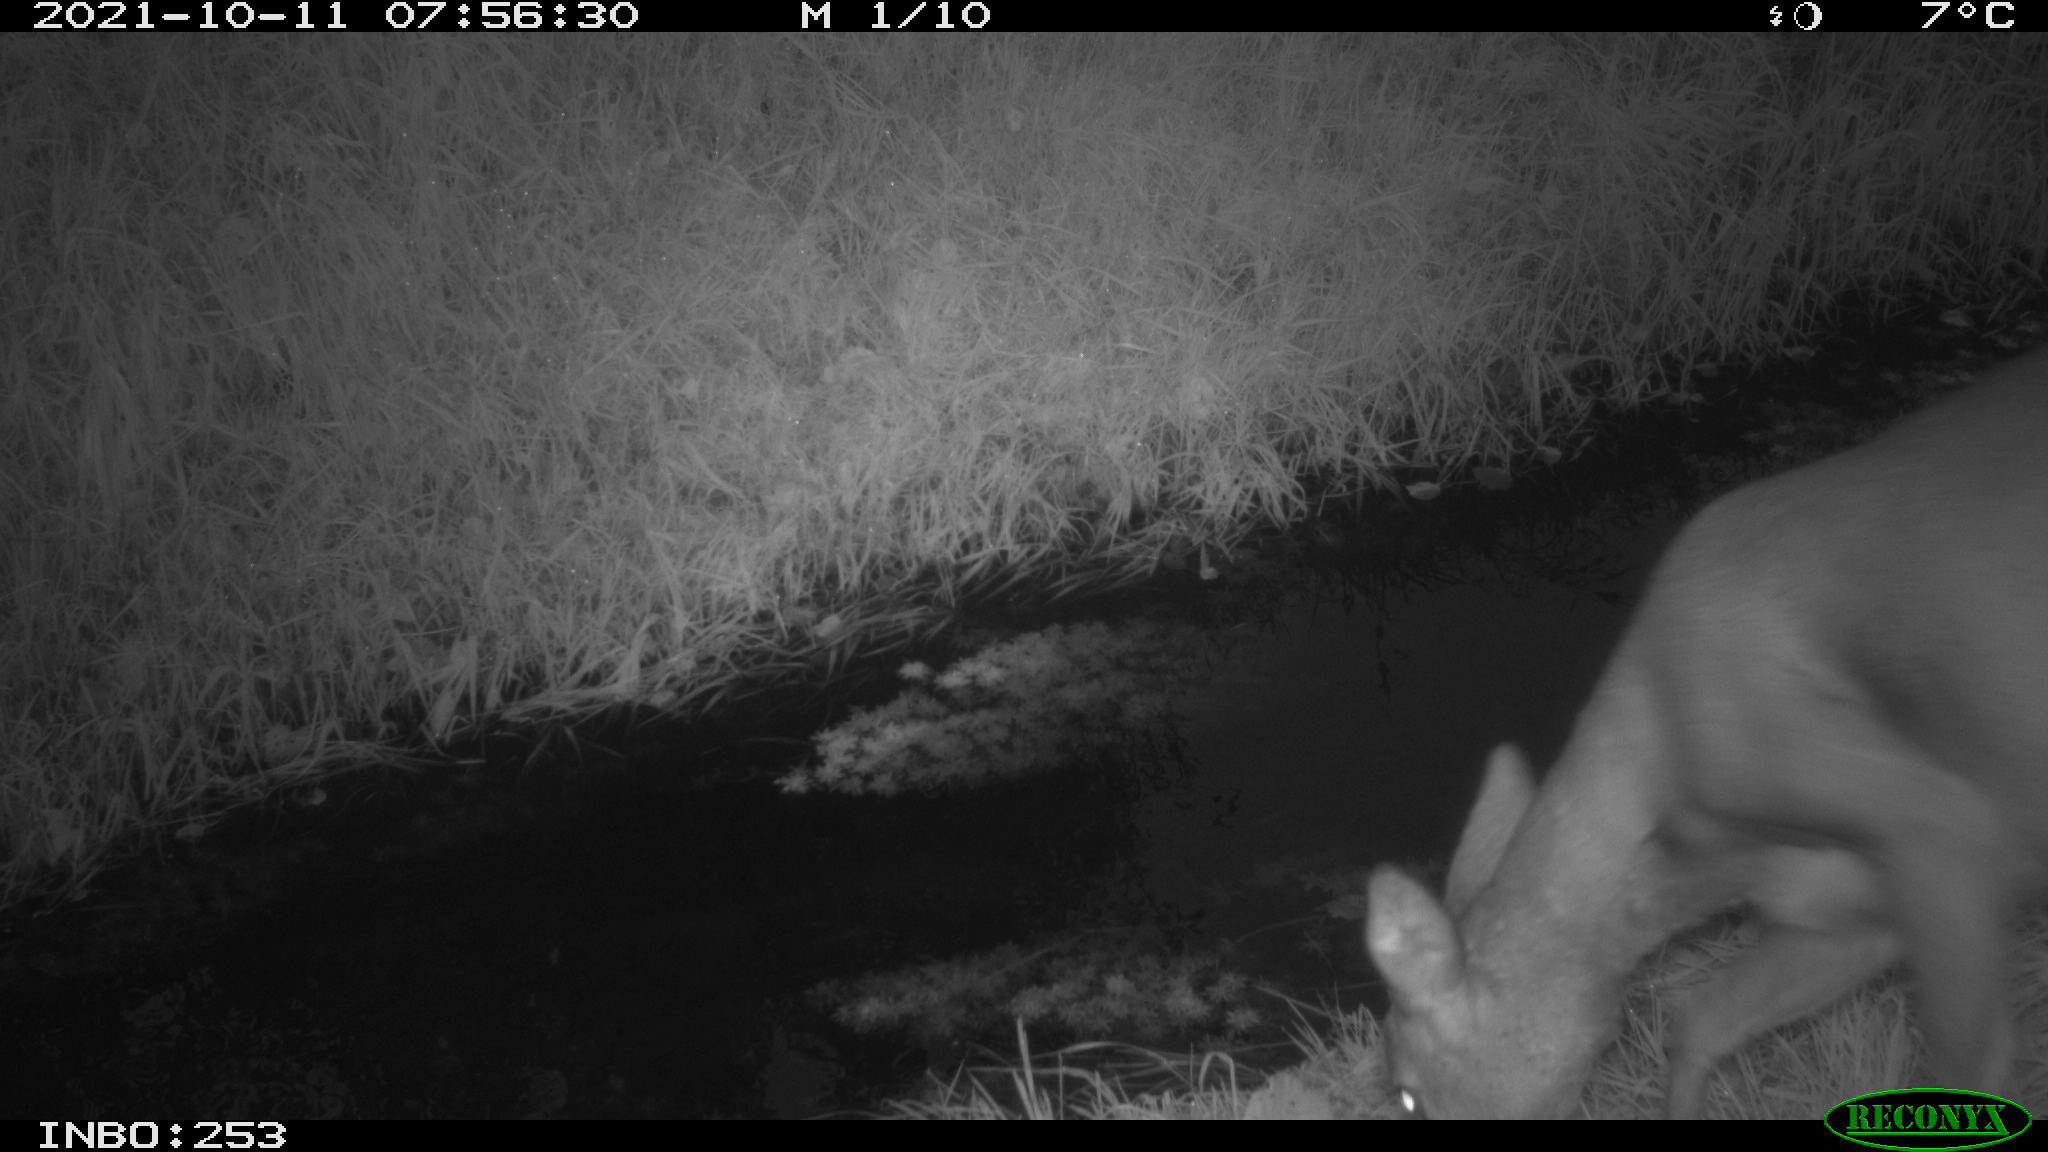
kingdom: Animalia
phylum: Chordata
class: Mammalia
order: Artiodactyla
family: Cervidae
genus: Capreolus
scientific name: Capreolus capreolus
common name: Western roe deer
